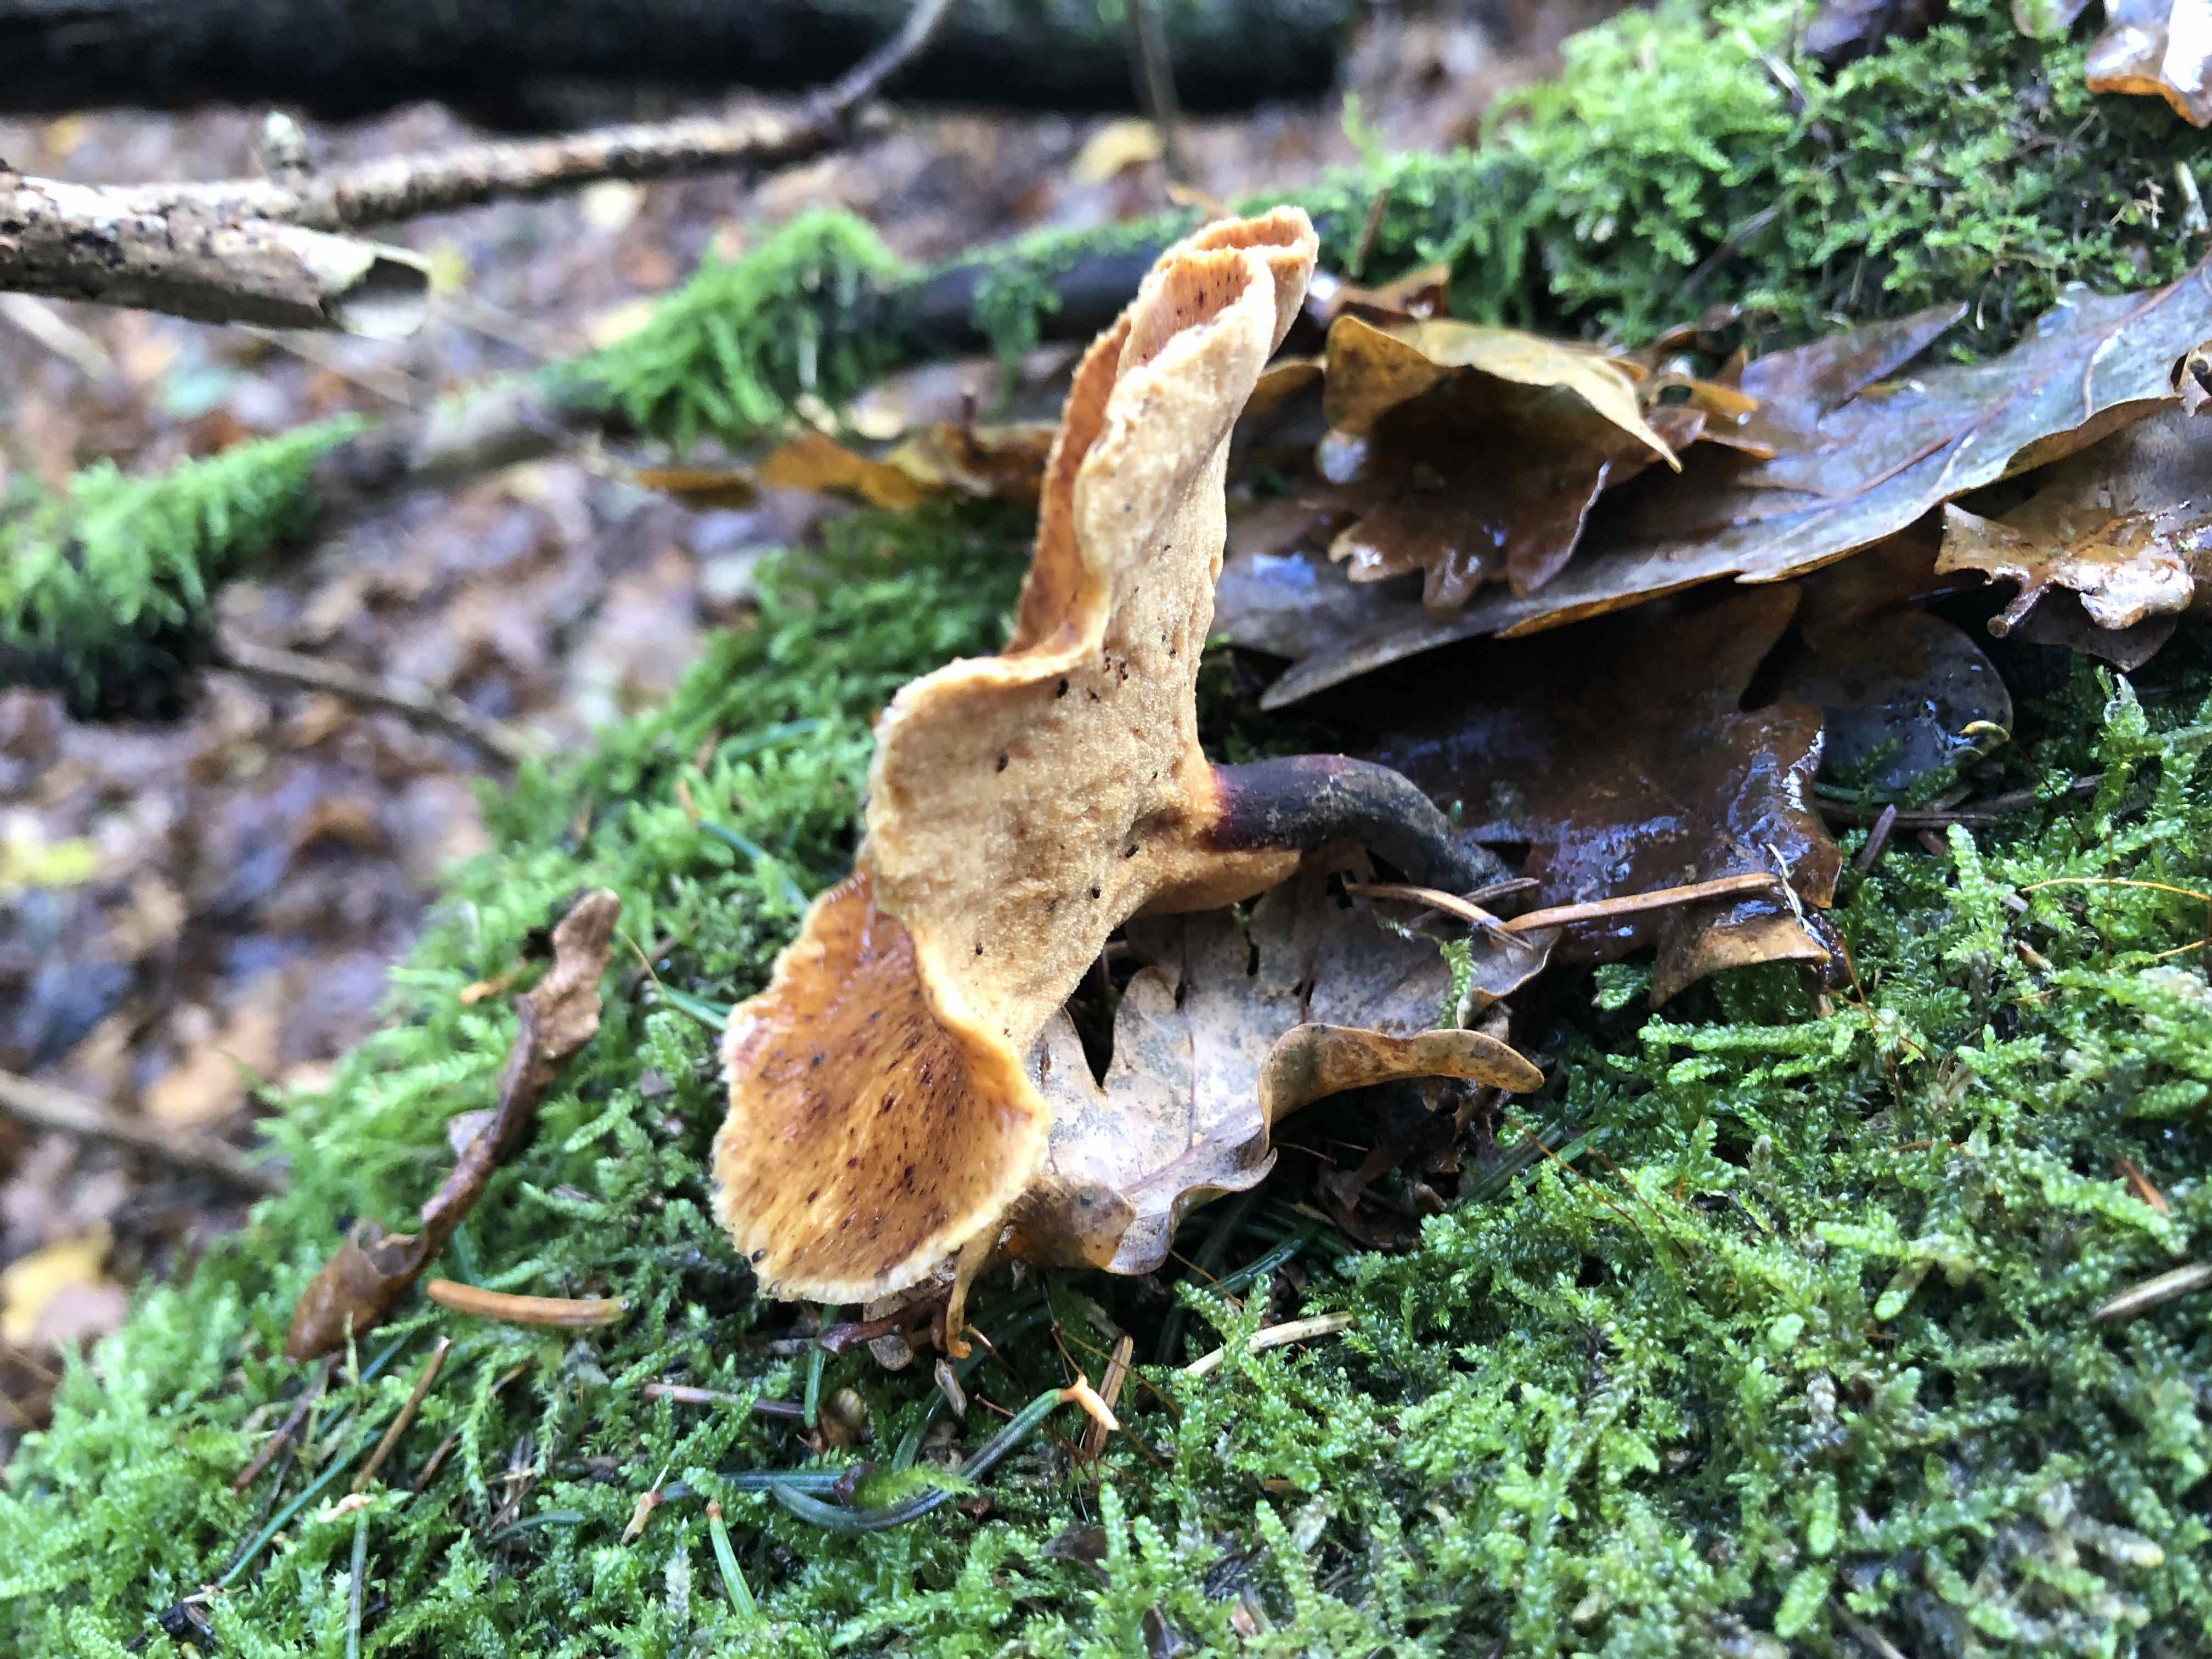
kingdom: Fungi
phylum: Basidiomycota
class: Agaricomycetes
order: Polyporales
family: Polyporaceae
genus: Cerioporus
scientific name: Cerioporus varius
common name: foranderlig stilkporesvamp
